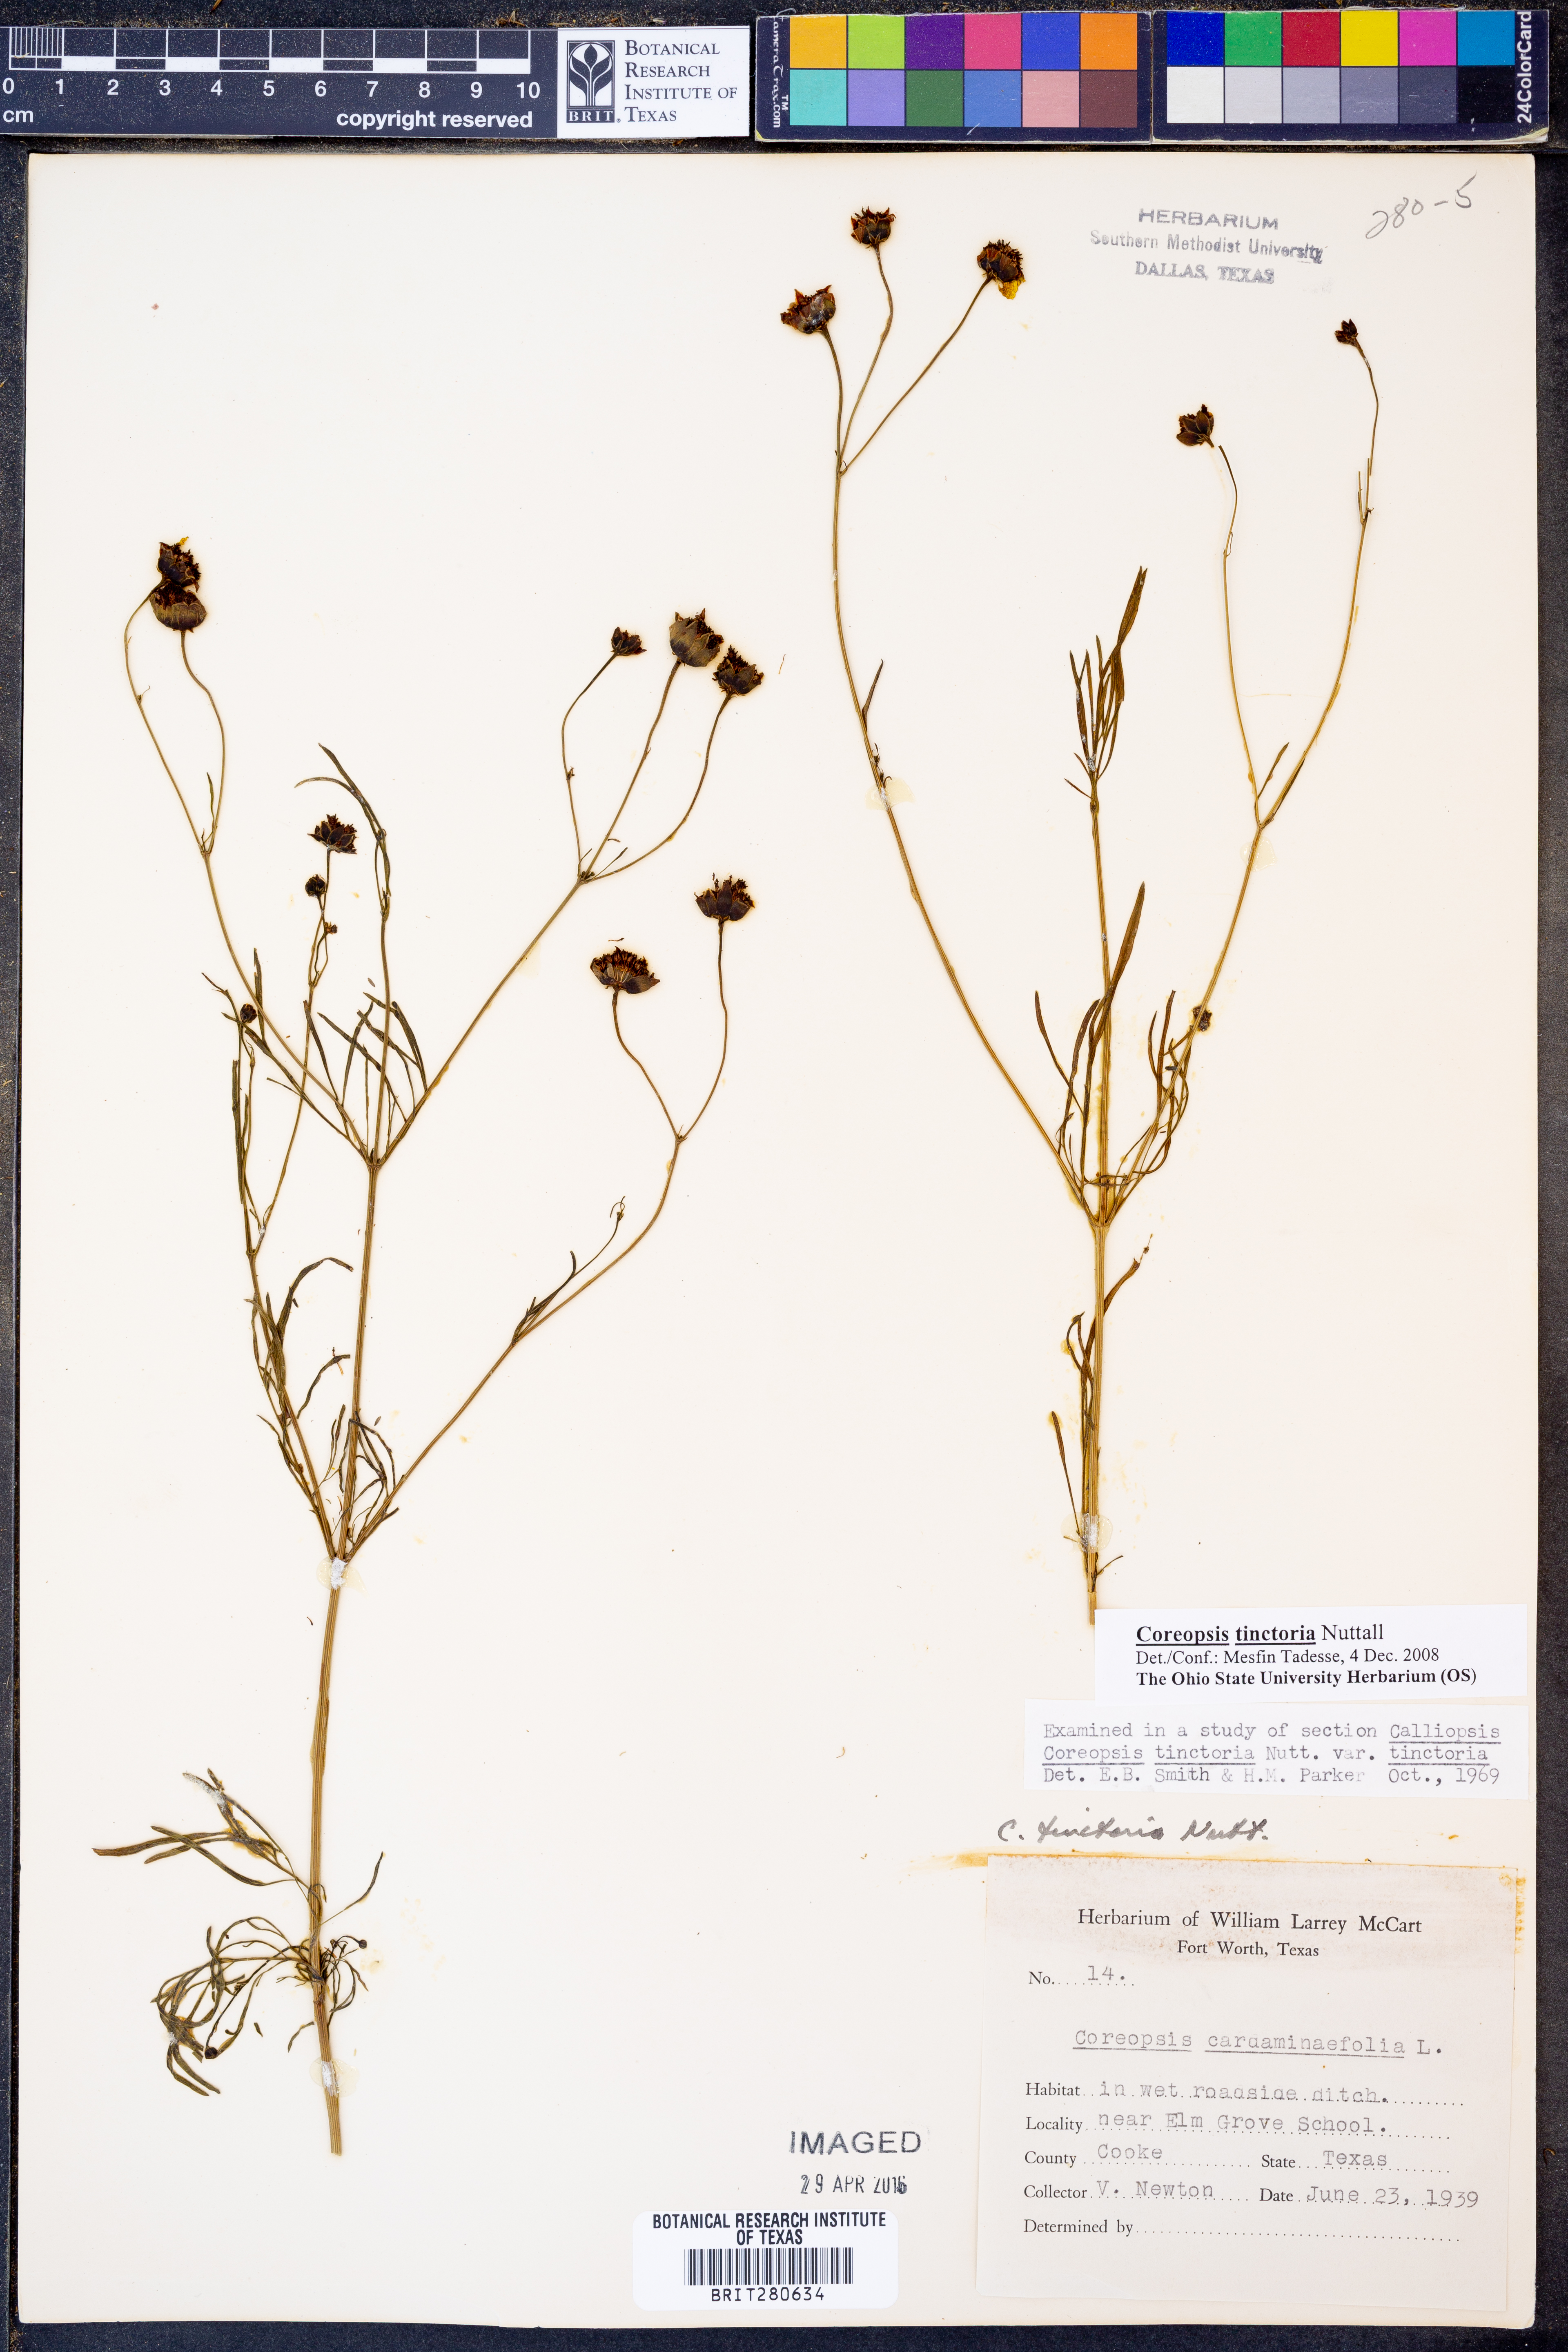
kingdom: Plantae
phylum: Tracheophyta
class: Magnoliopsida
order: Asterales
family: Asteraceae
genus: Coreopsis
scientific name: Coreopsis tinctoria
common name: Garden tickseed
